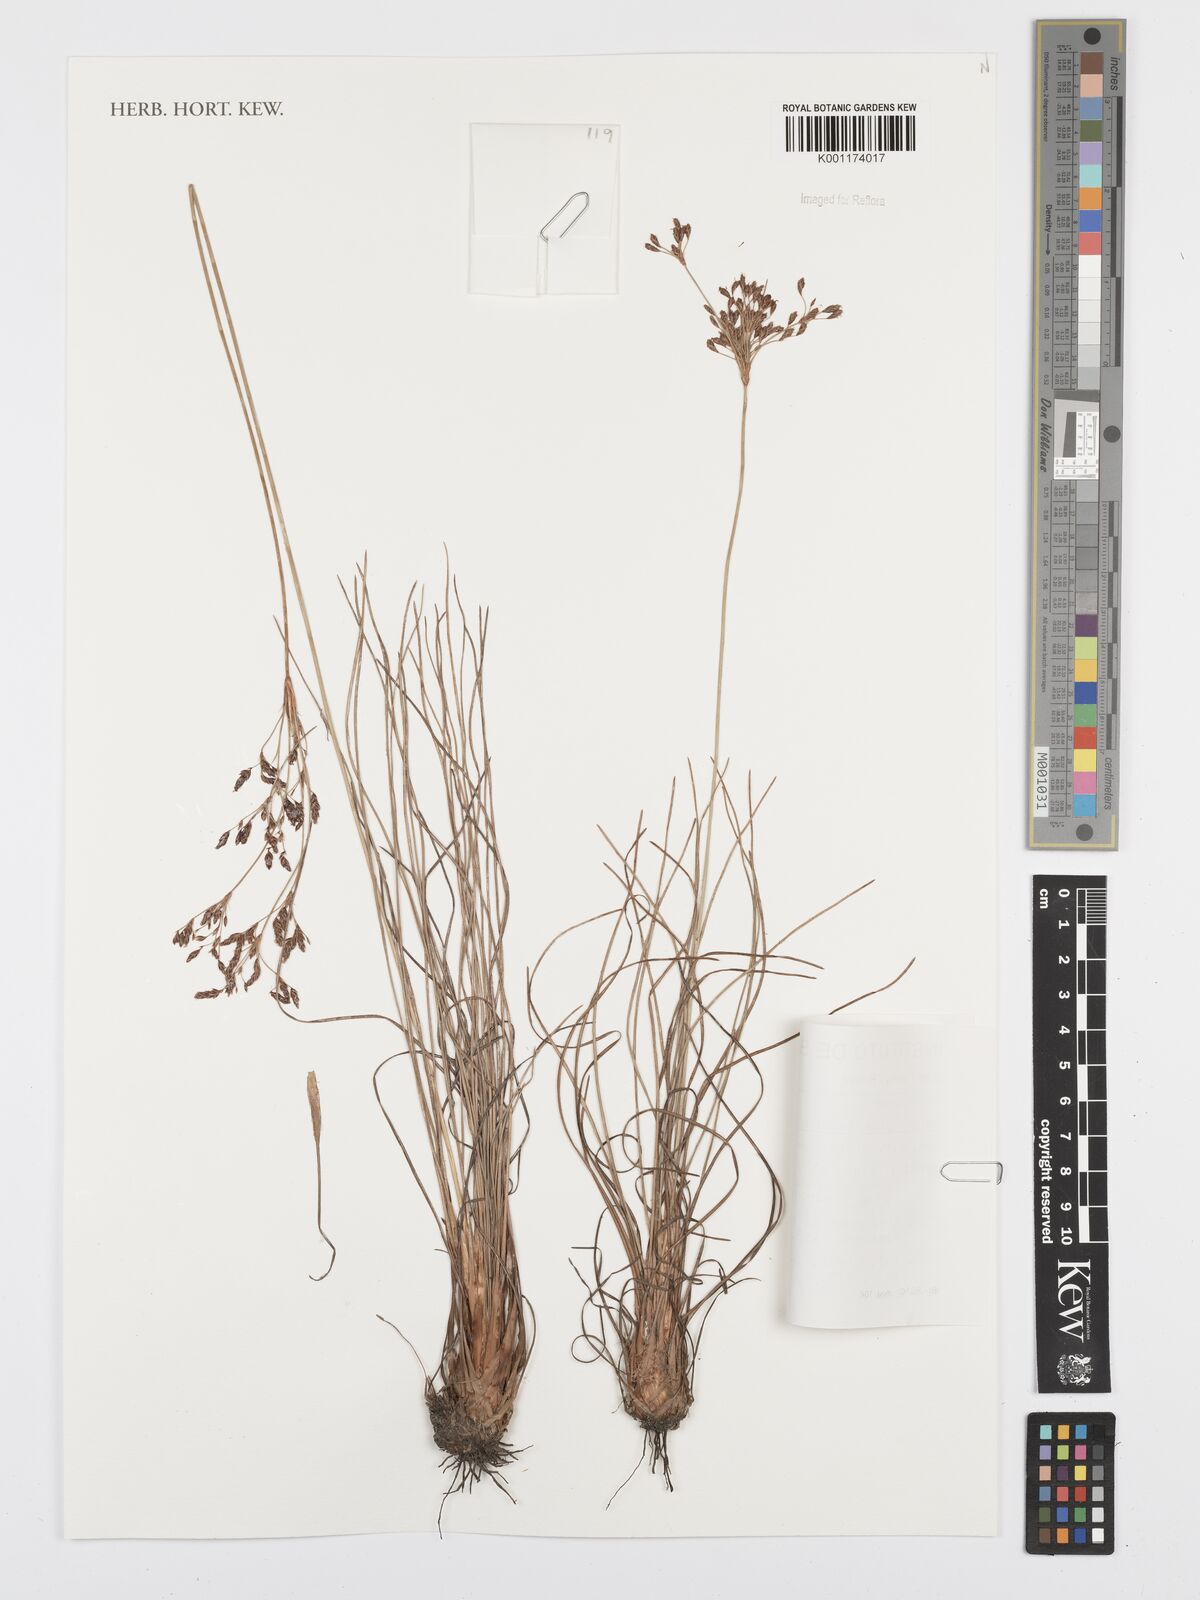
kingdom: Plantae
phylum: Tracheophyta
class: Liliopsida
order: Poales
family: Cyperaceae
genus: Bulbostylis
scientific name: Bulbostylis jacobinae
